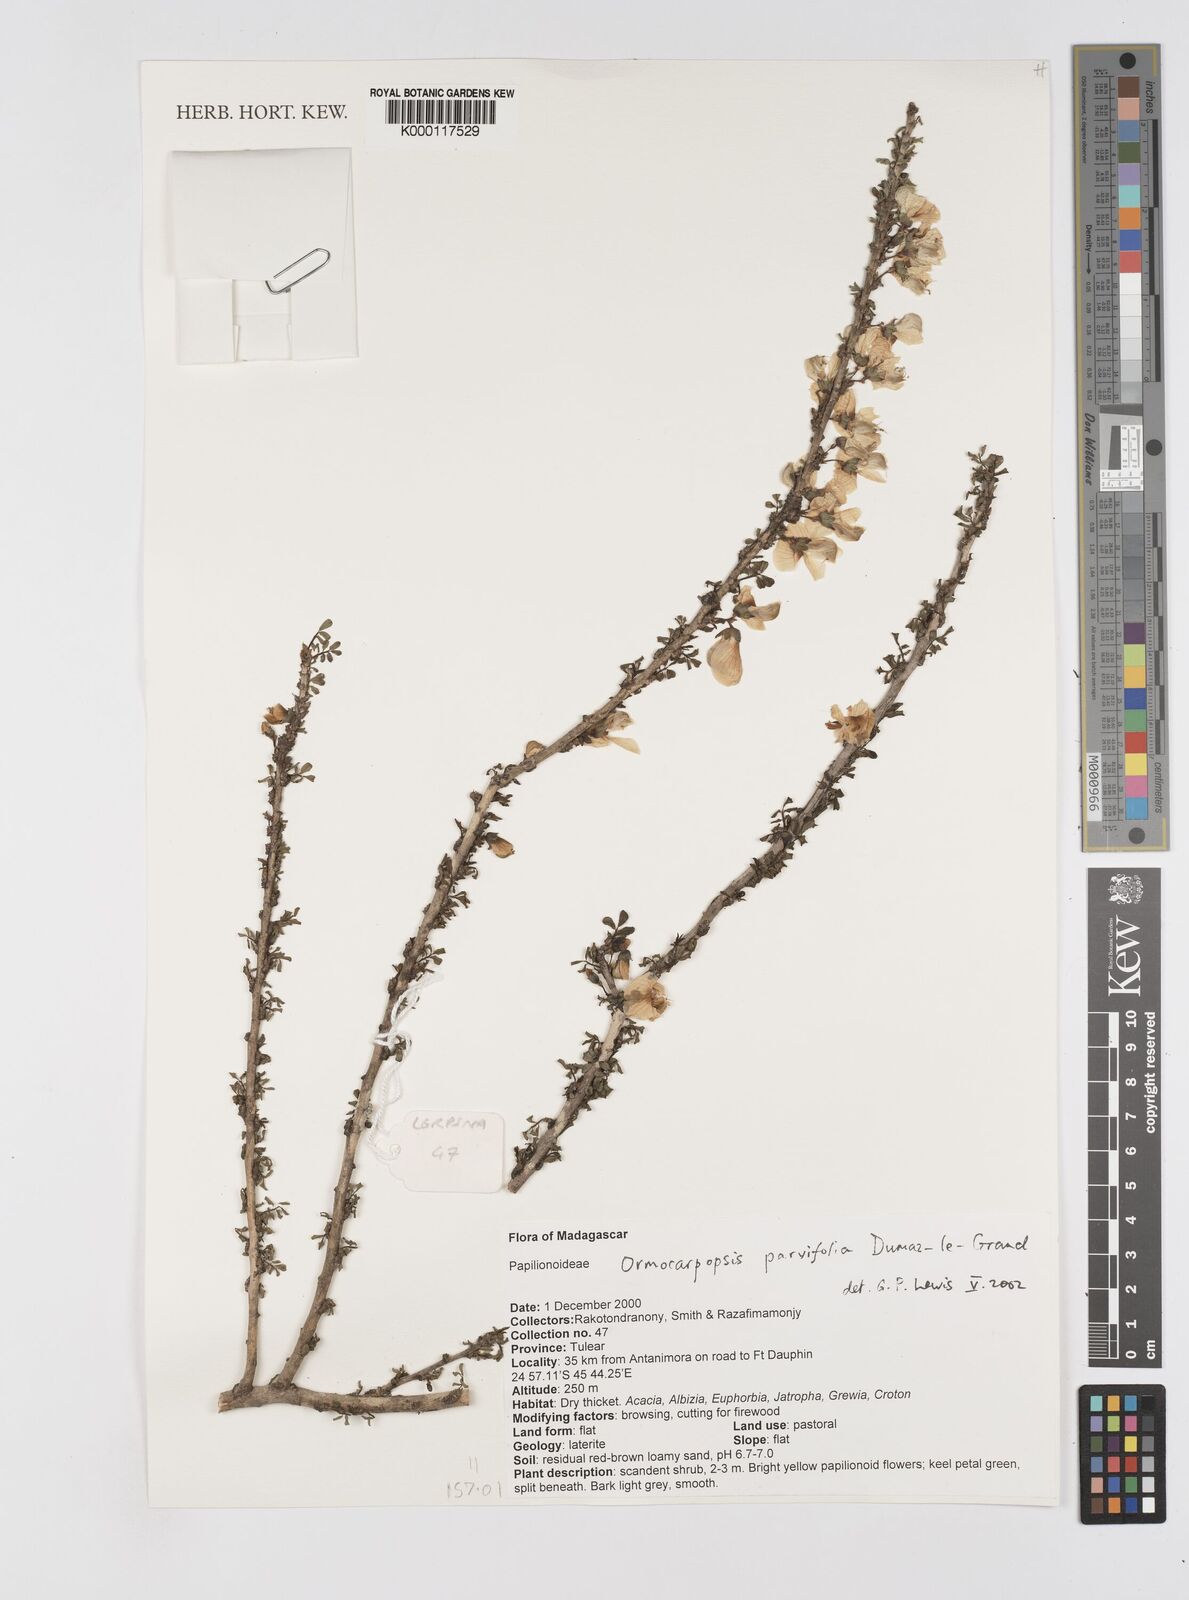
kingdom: Plantae
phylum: Tracheophyta
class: Magnoliopsida
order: Fabales
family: Fabaceae
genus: Ormocarpopsis
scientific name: Ormocarpopsis parvifolia
